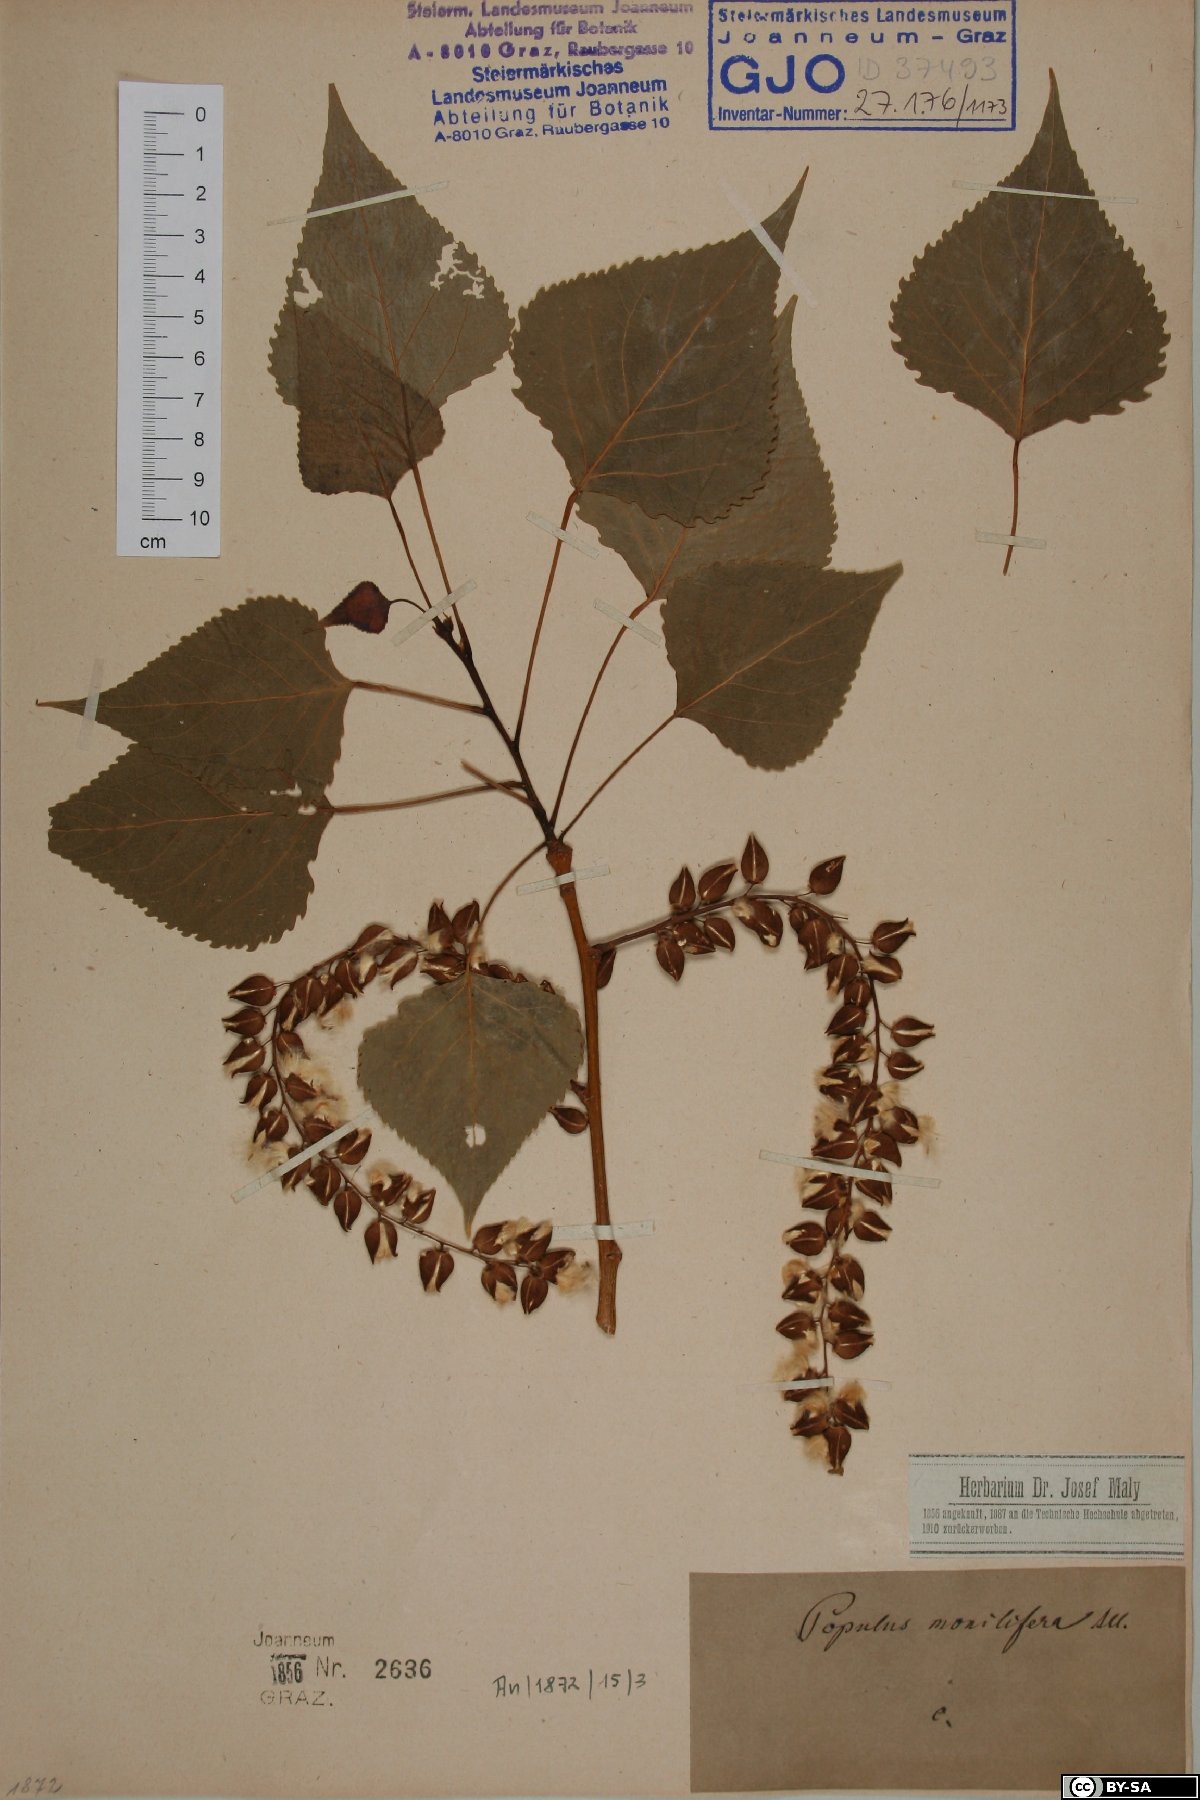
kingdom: Plantae
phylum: Tracheophyta
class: Magnoliopsida
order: Malpighiales
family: Salicaceae
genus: Populus
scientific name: Populus deltoides
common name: Eastern cottonwood
